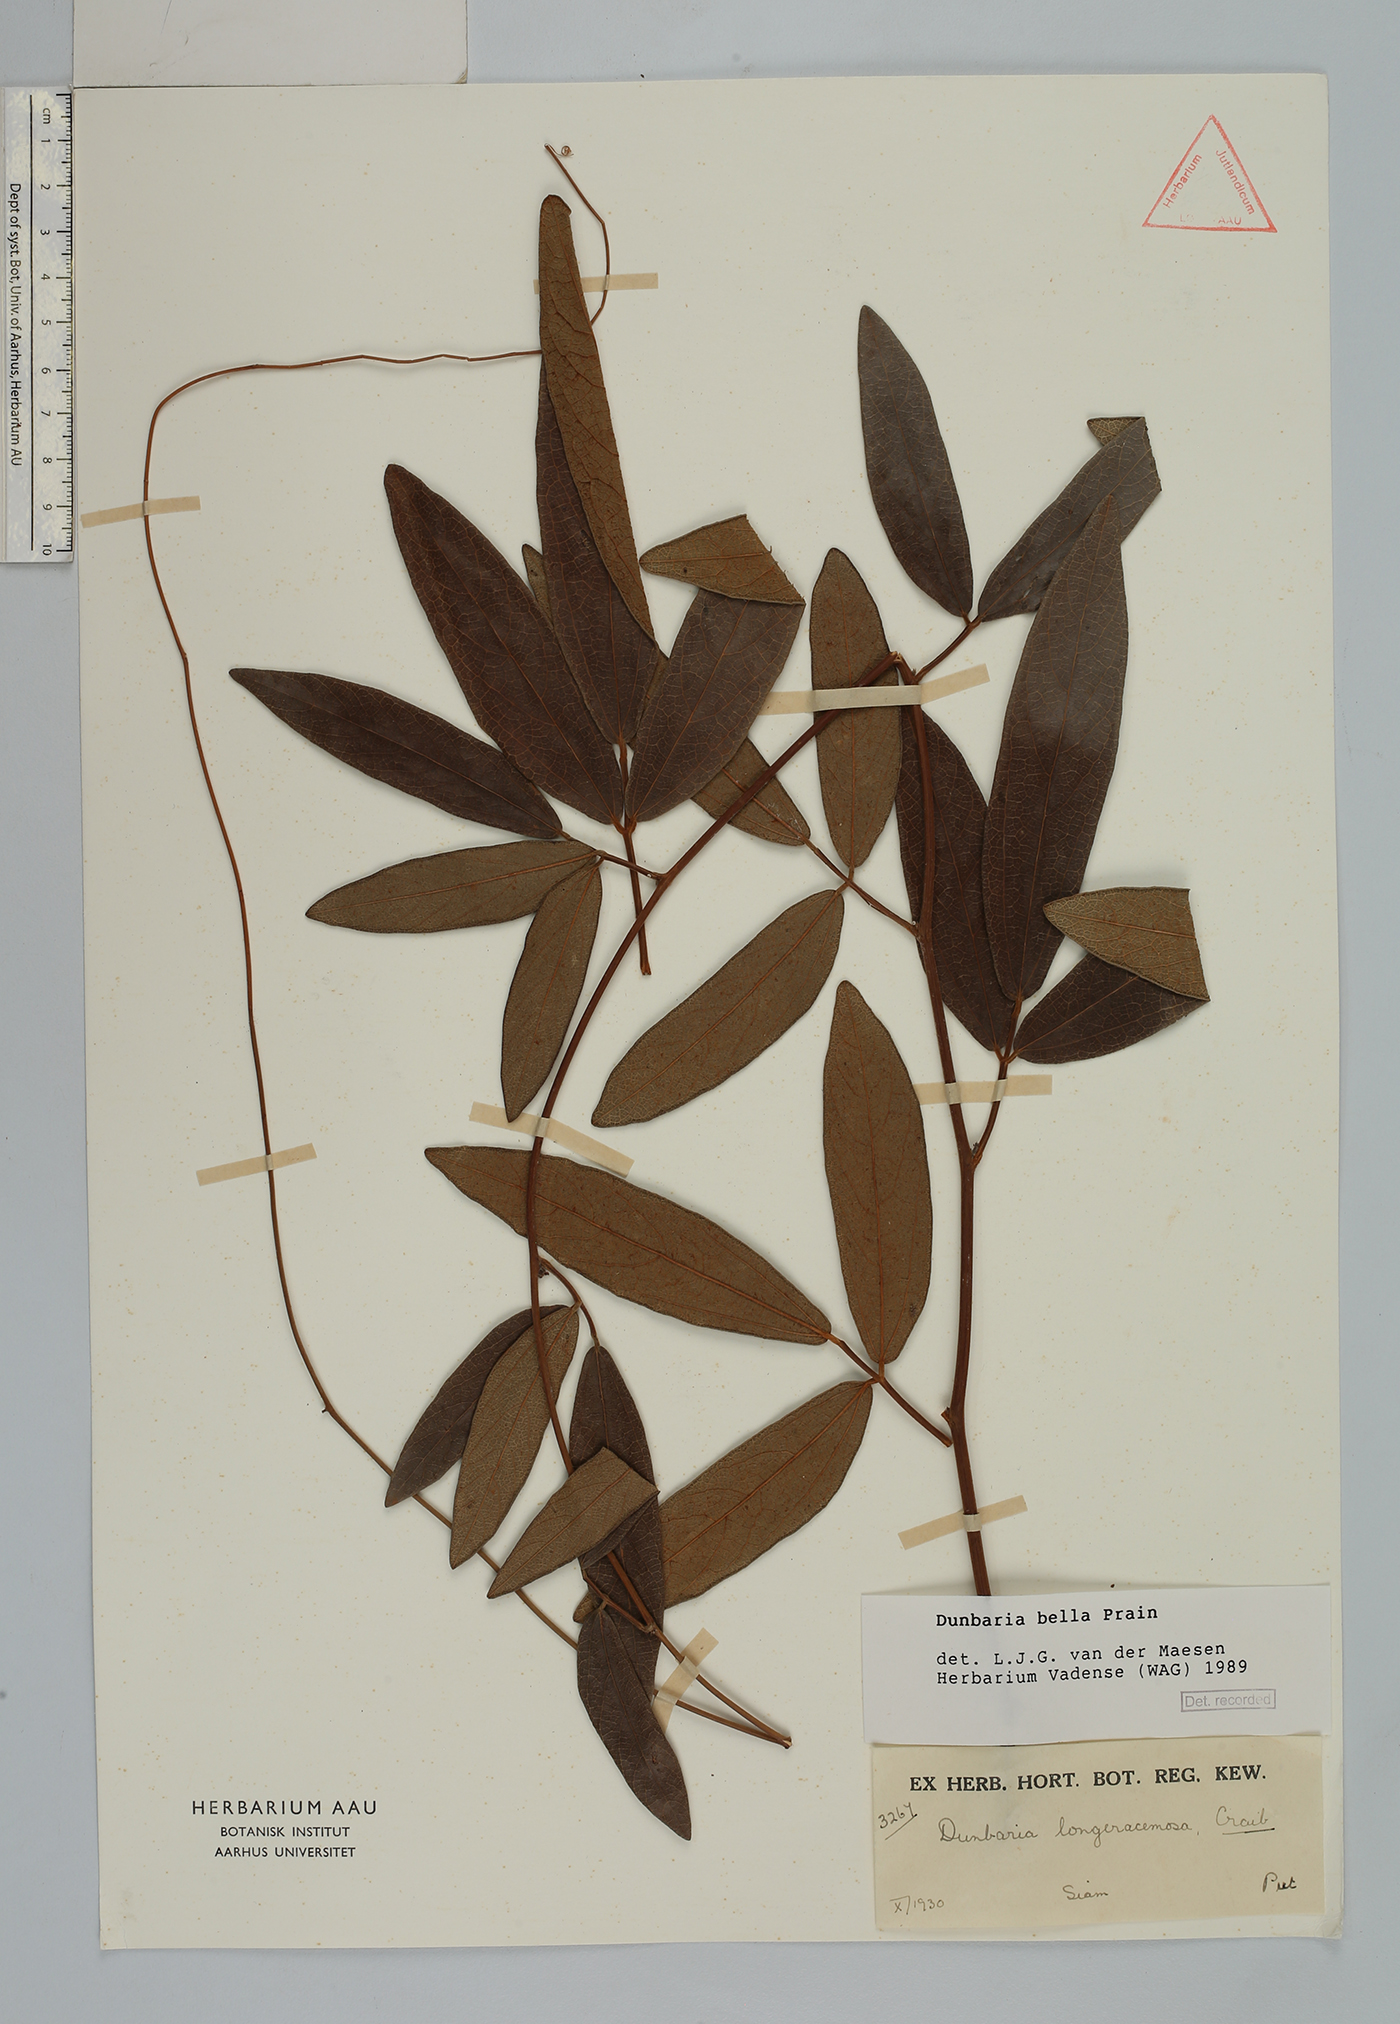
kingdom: Plantae
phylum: Tracheophyta
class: Magnoliopsida
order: Fabales
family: Fabaceae
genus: Dunbaria
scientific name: Dunbaria bella
